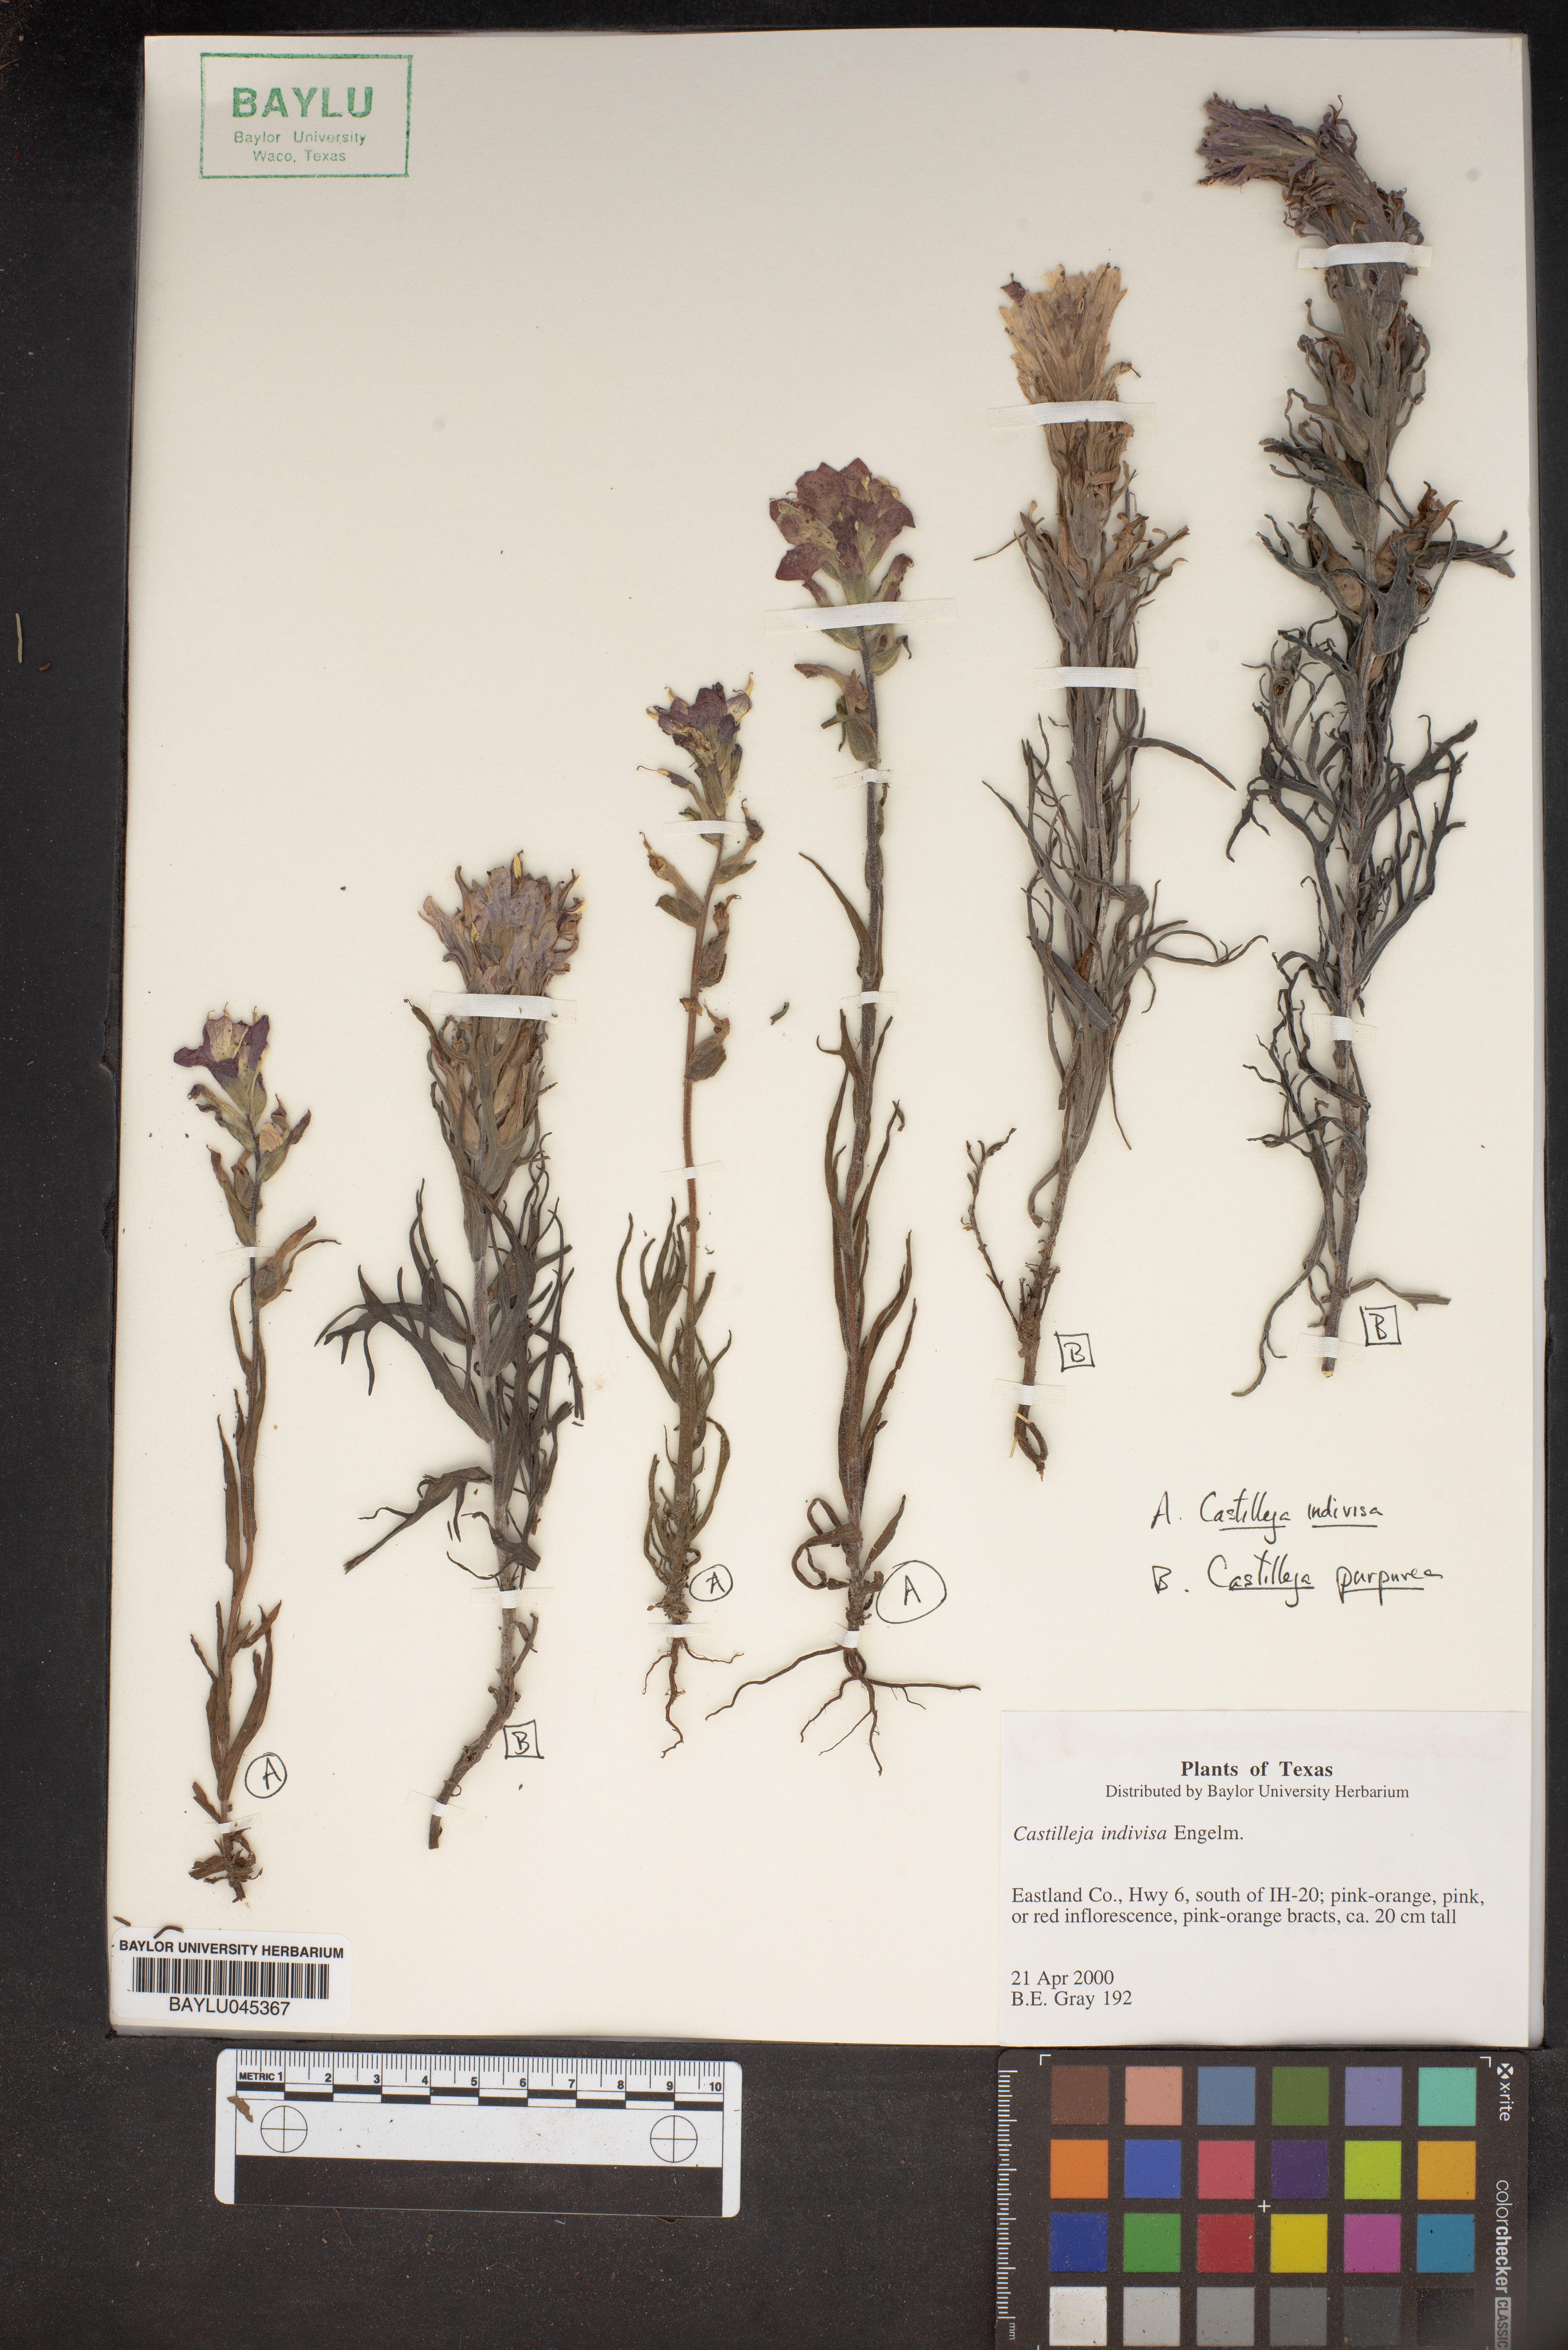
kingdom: Plantae
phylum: Tracheophyta
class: Magnoliopsida
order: Lamiales
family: Orobanchaceae
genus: Castilleja
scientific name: Castilleja indivisa
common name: Texas paintbrush
